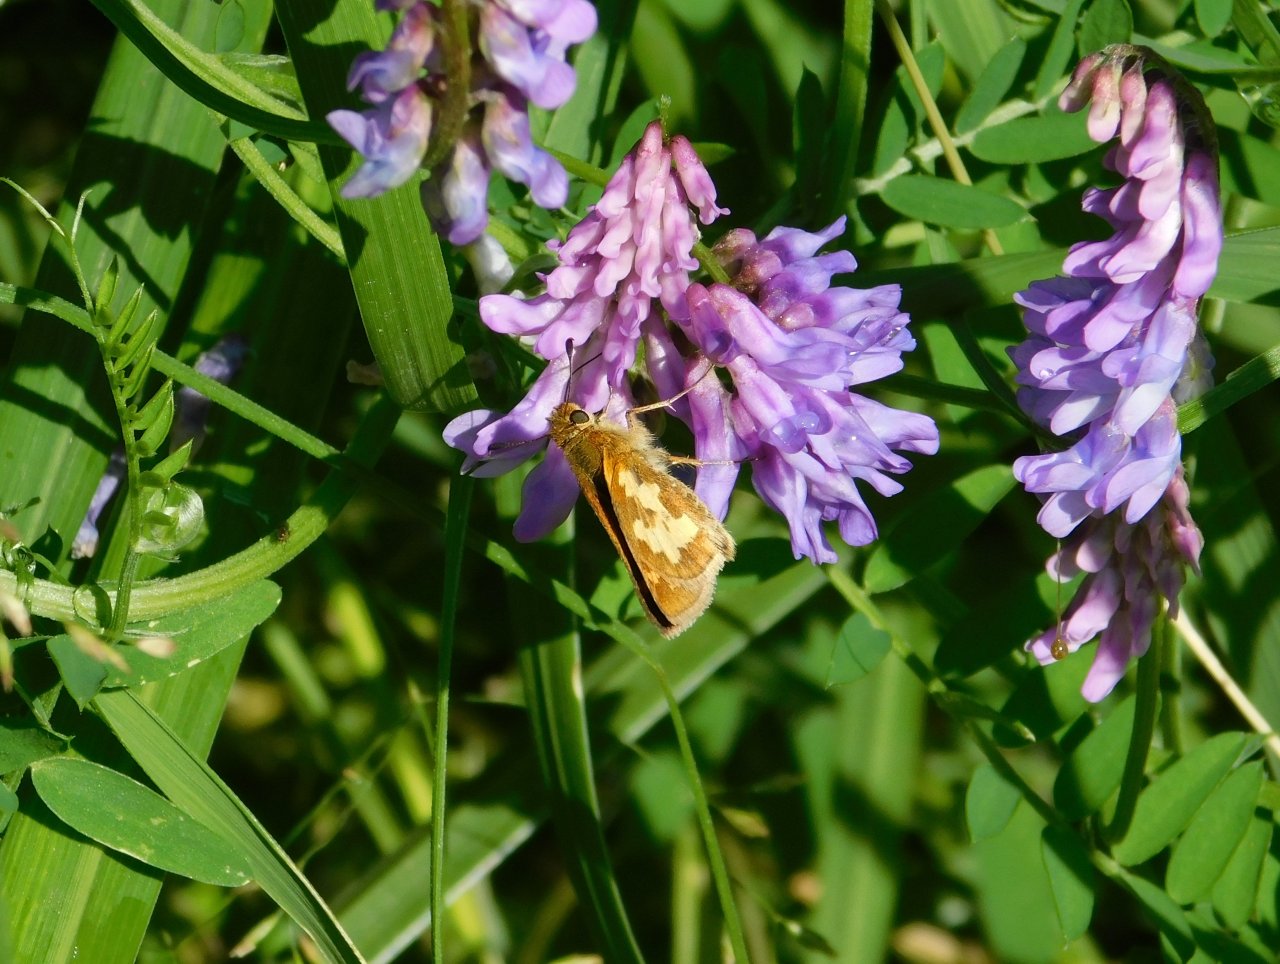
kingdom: Animalia
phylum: Arthropoda
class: Insecta
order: Lepidoptera
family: Hesperiidae
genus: Polites
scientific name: Polites coras
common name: Peck's Skipper
